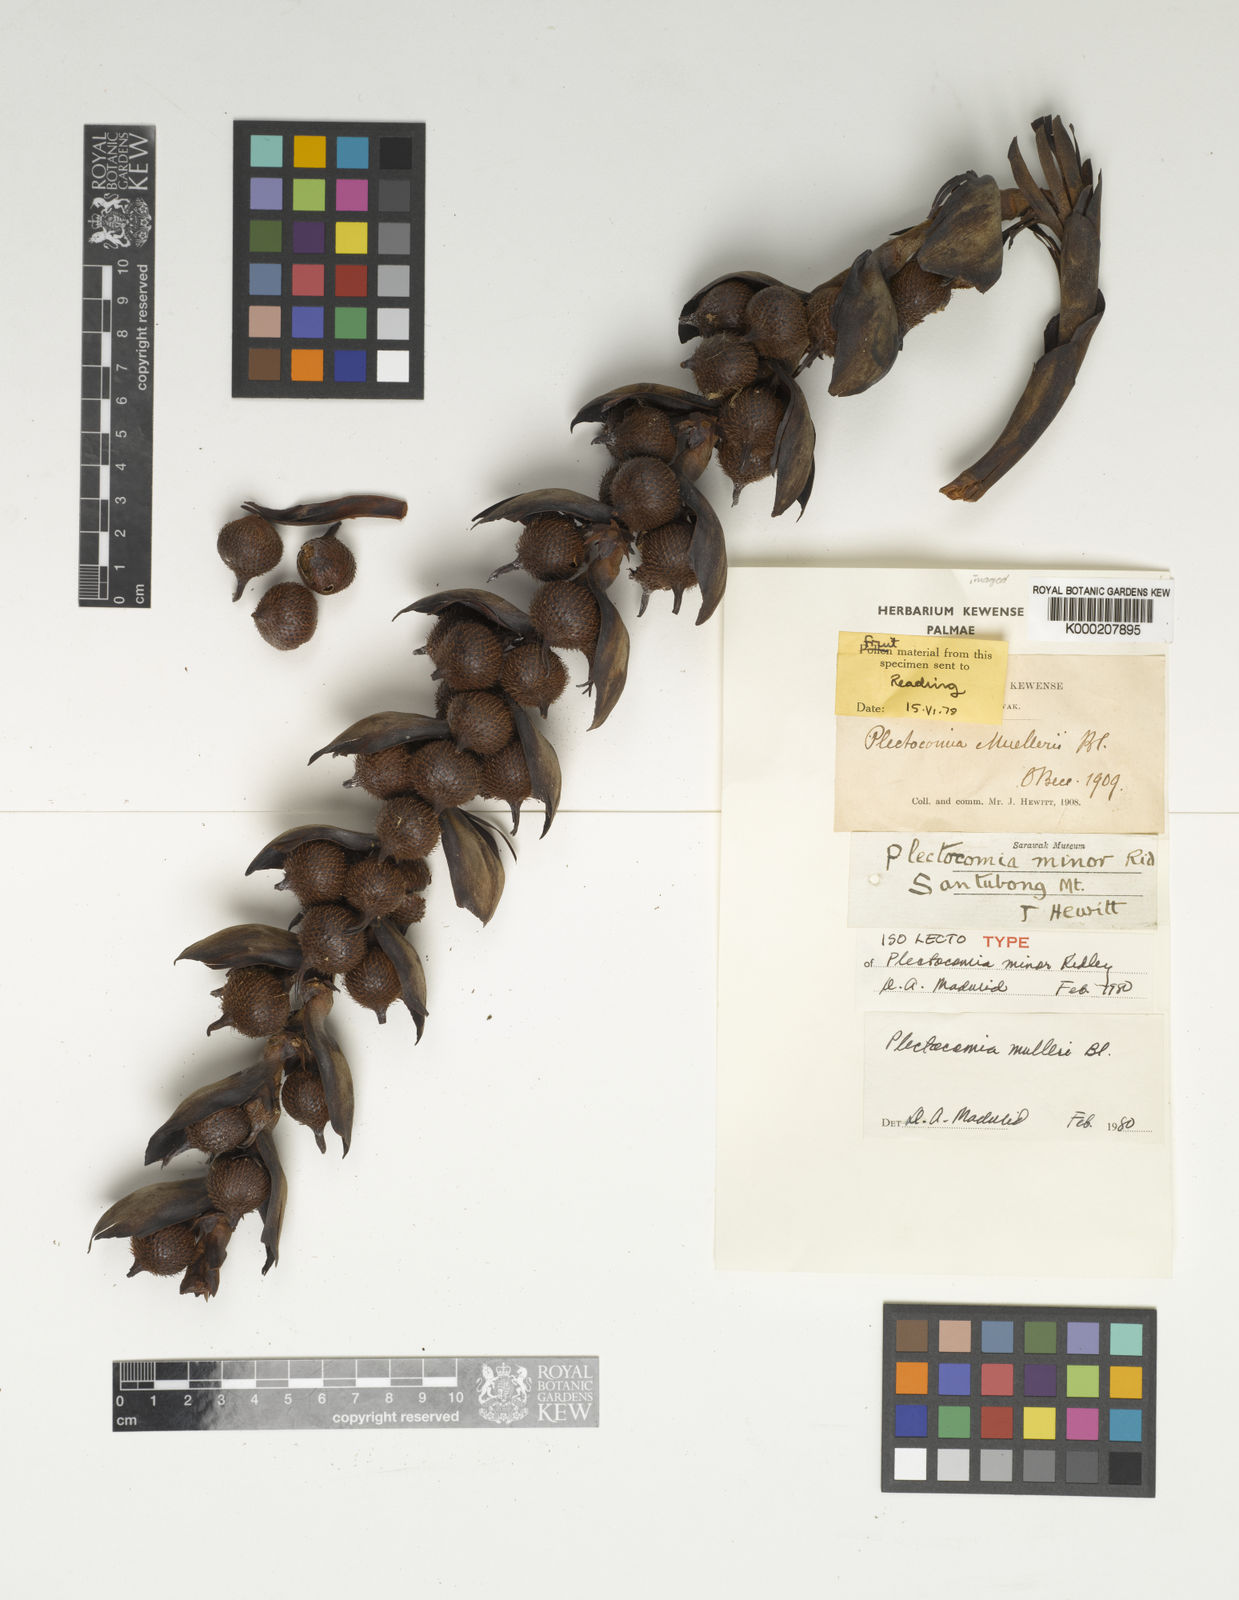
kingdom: Plantae
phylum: Tracheophyta
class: Liliopsida
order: Arecales
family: Arecaceae
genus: Plectocomia
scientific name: Plectocomia mulleri
